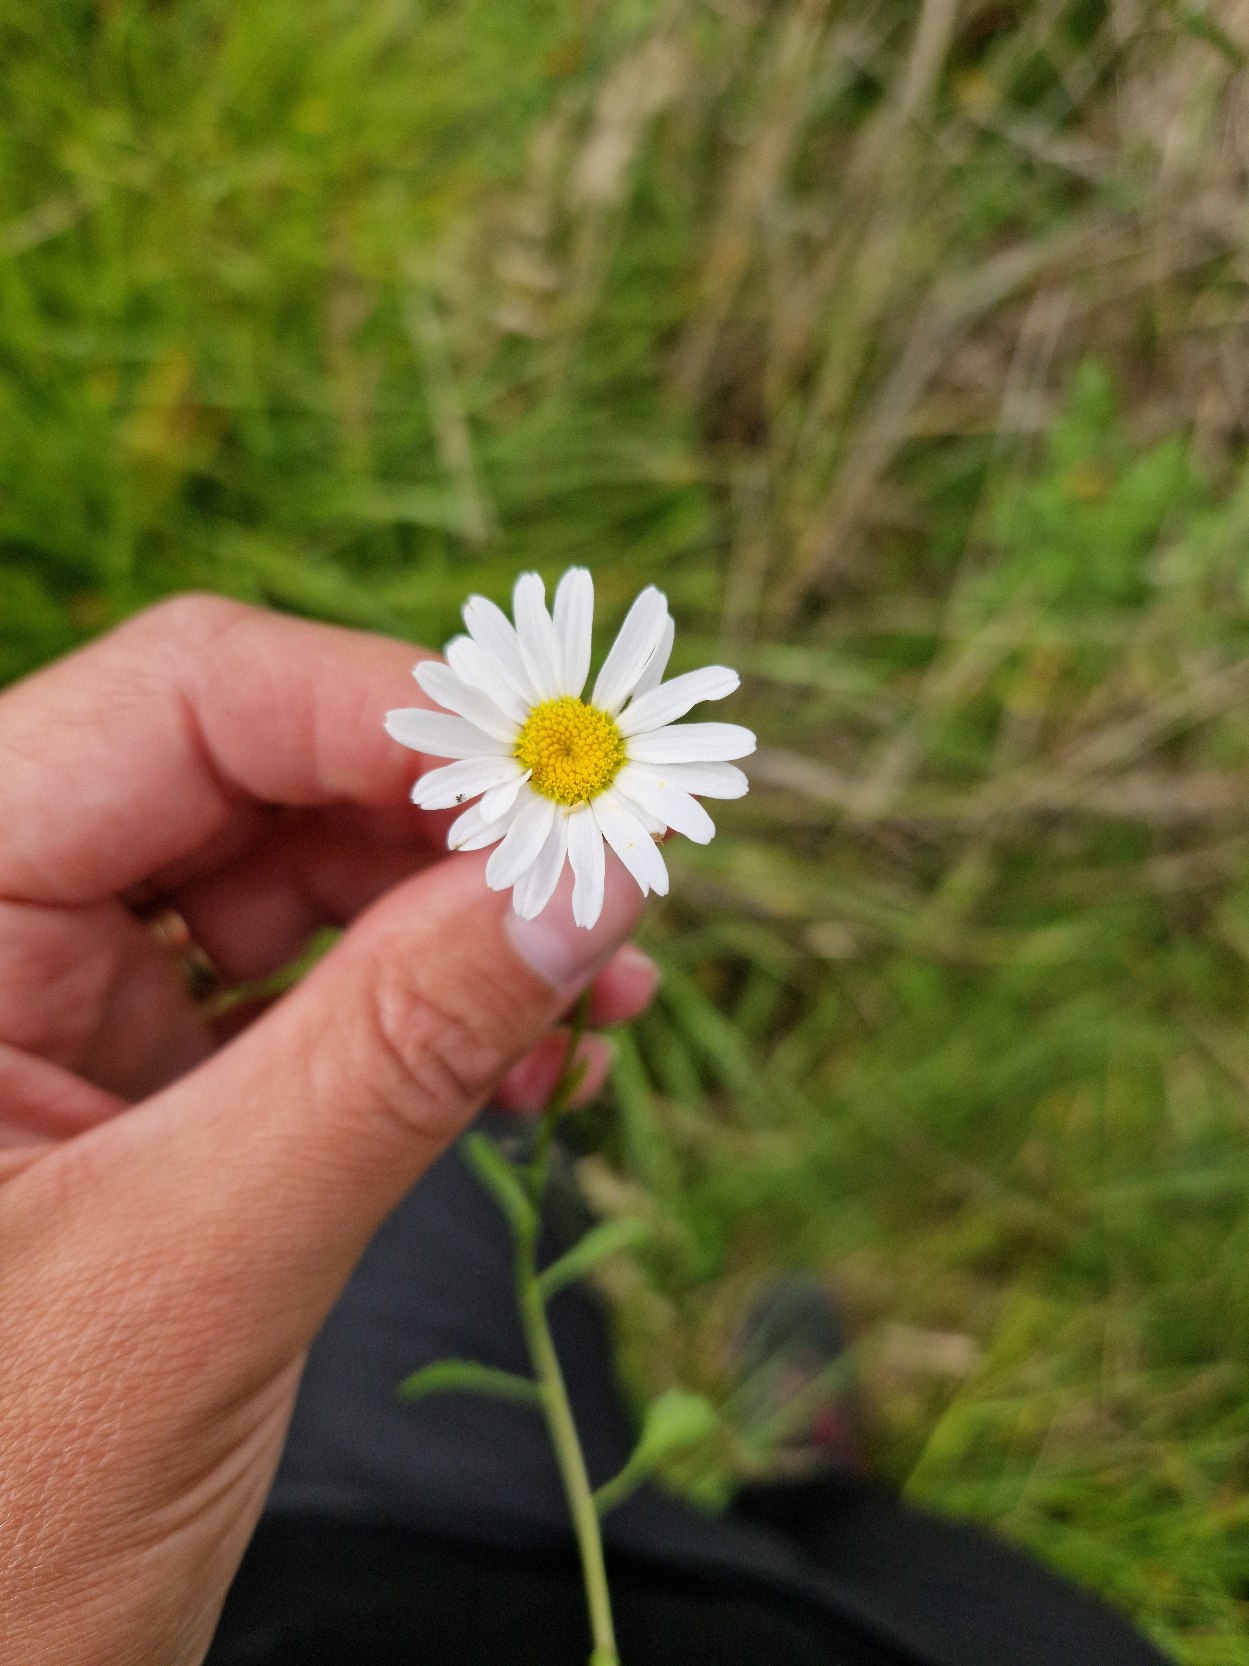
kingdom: Plantae
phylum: Tracheophyta
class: Magnoliopsida
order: Asterales
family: Asteraceae
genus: Leucanthemum
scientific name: Leucanthemum vulgare
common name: Hvid okseøje
